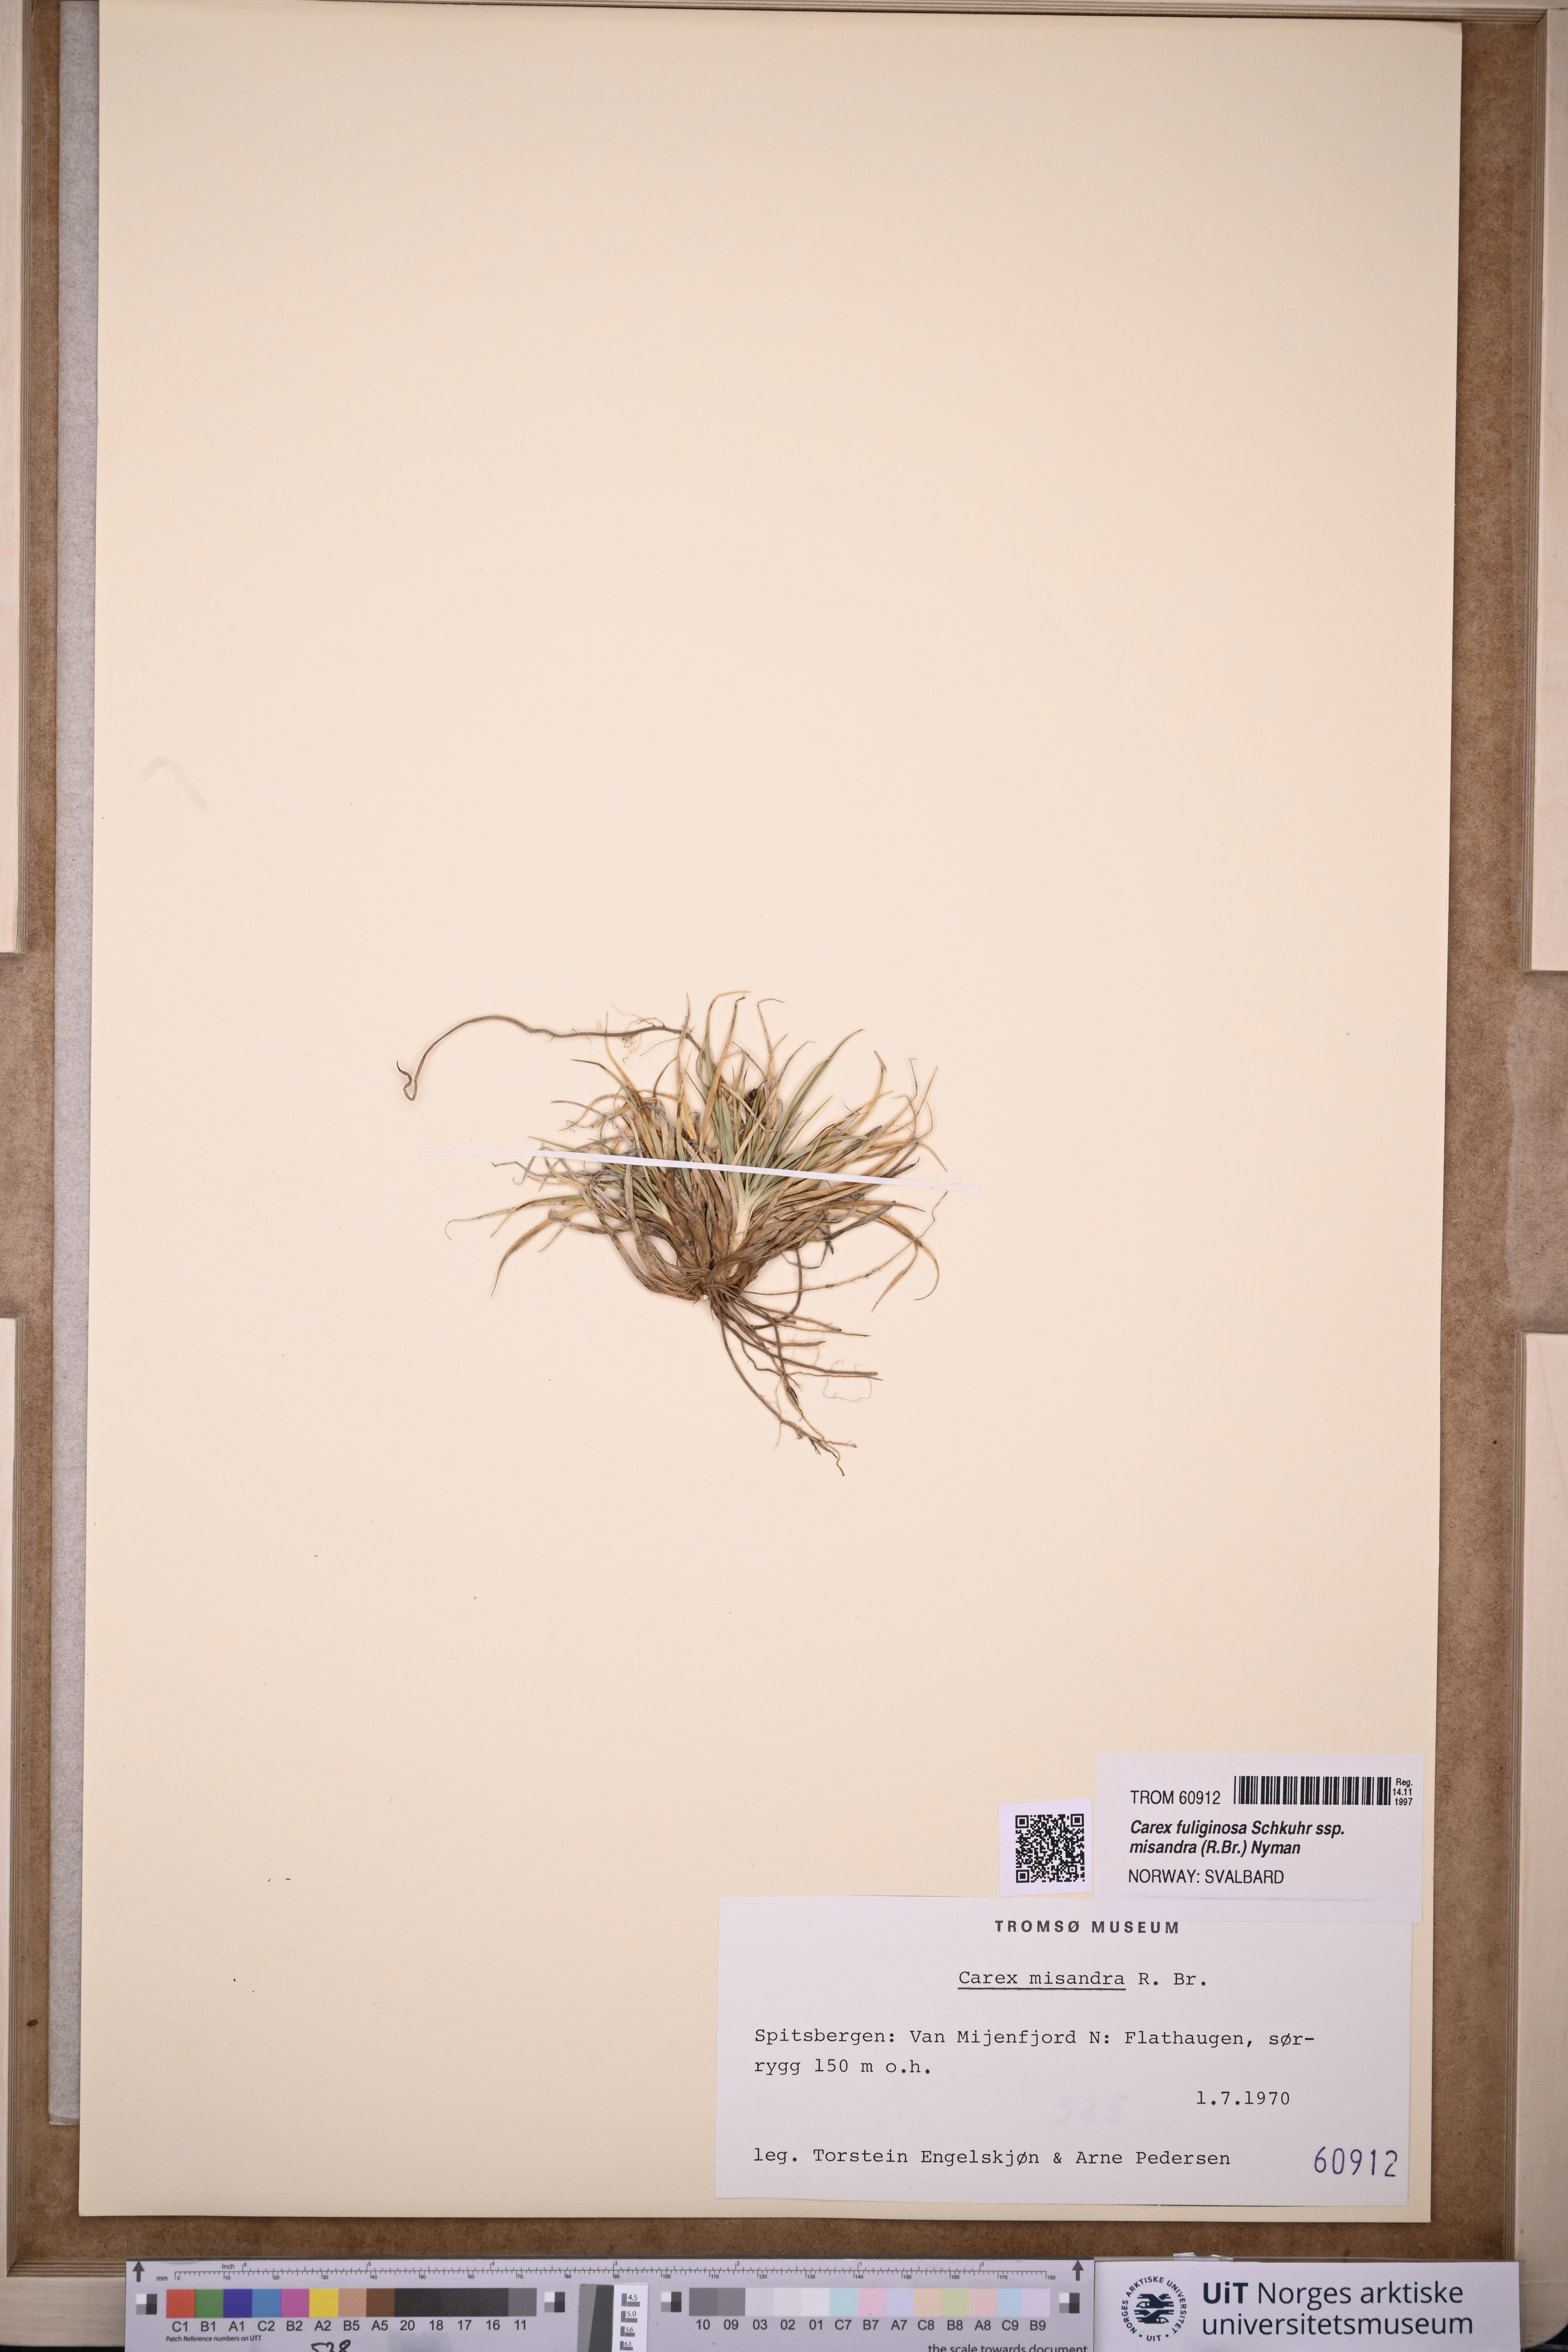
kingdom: Plantae
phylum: Tracheophyta
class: Liliopsida
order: Poales
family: Cyperaceae
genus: Carex
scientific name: Carex fuliginosa
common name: Few-flowered sedge
